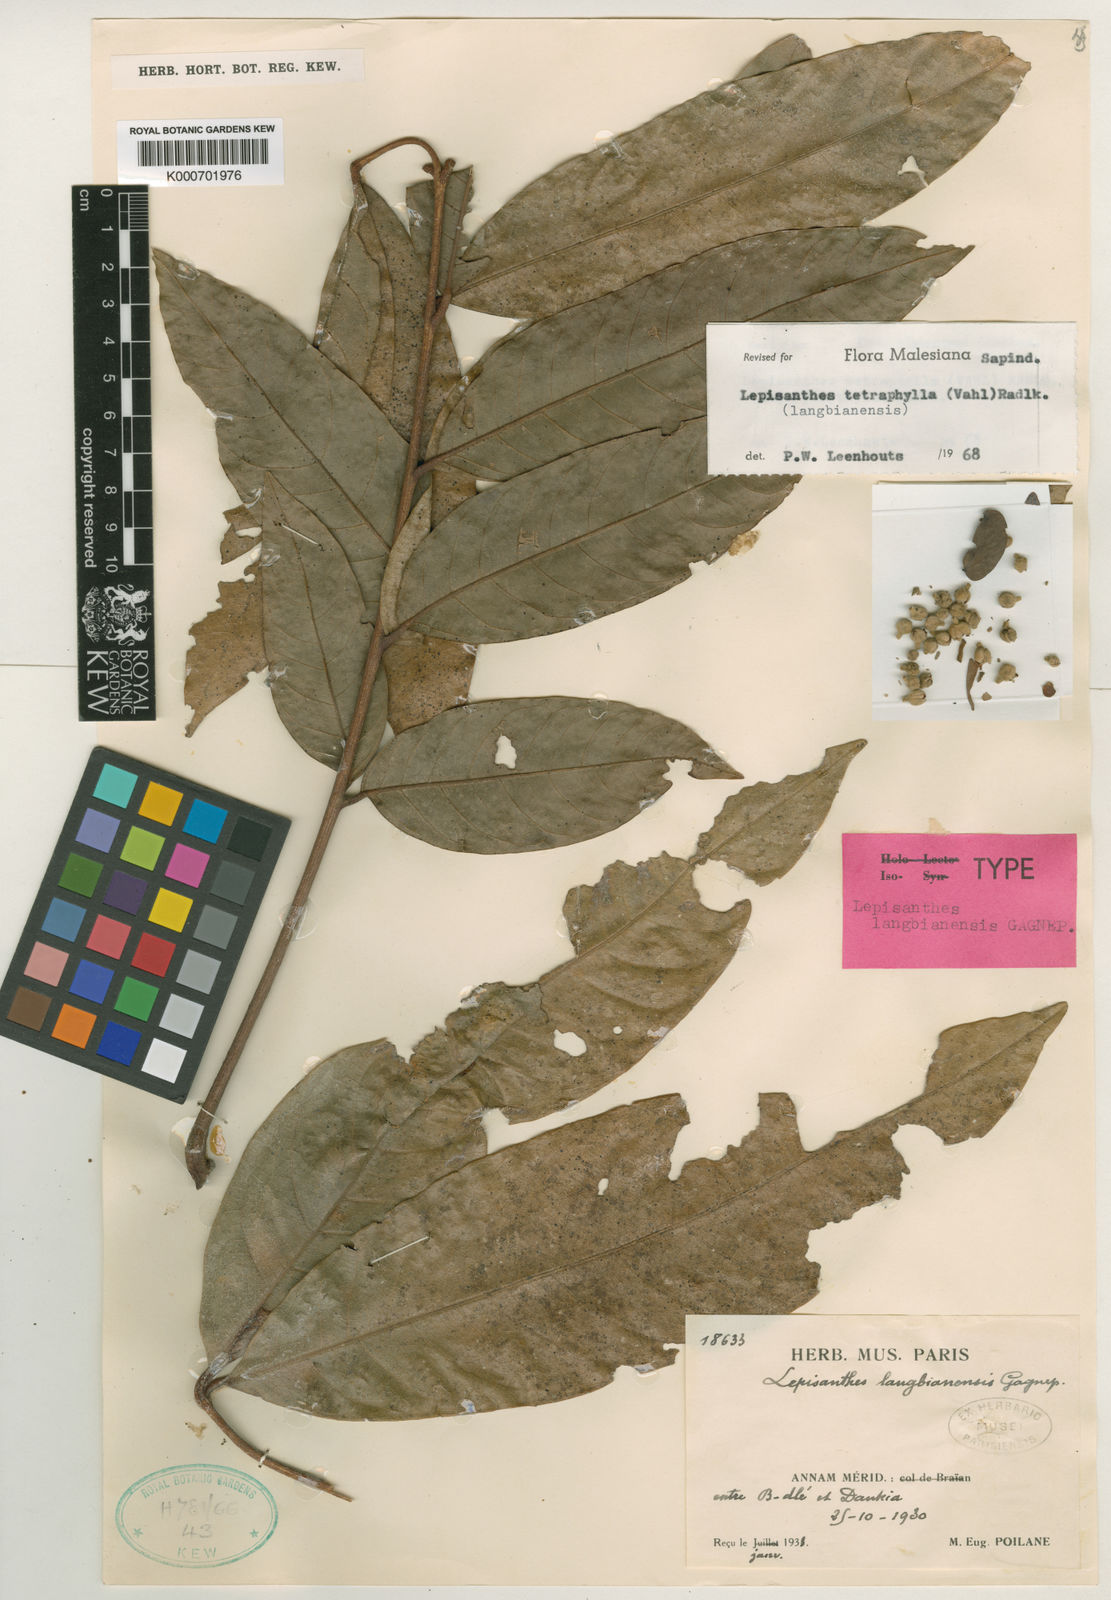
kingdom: Plantae
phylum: Tracheophyta
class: Magnoliopsida
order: Sapindales
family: Sapindaceae
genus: Lepisanthes
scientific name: Lepisanthes tetraphylla
